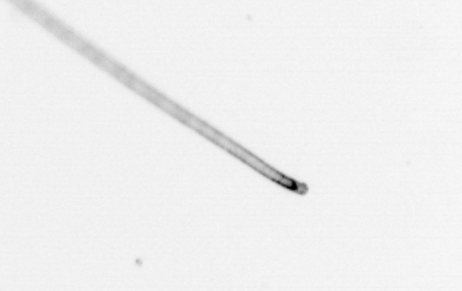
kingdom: Chromista
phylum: Ochrophyta
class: Bacillariophyceae
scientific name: Bacillariophyceae
